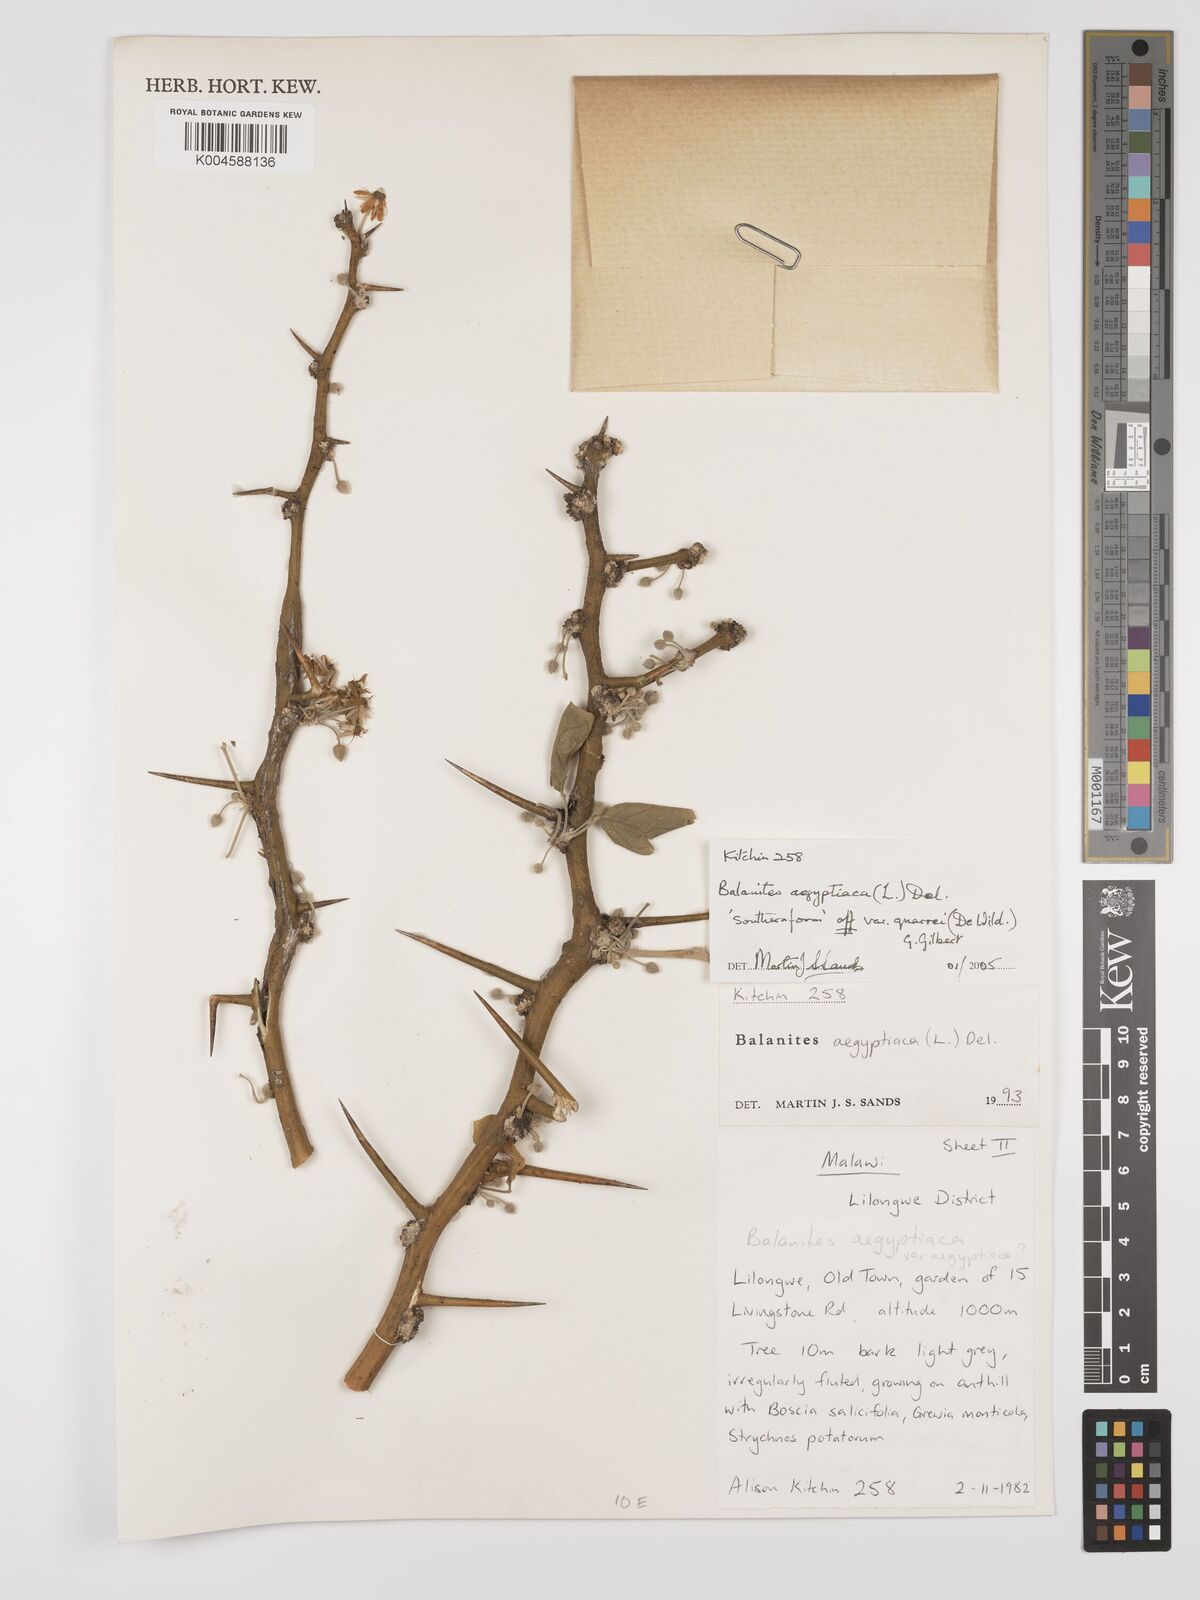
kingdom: Plantae
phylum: Tracheophyta
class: Magnoliopsida
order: Zygophyllales
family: Zygophyllaceae
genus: Balanites
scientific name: Balanites aegyptiaca
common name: Balanites
